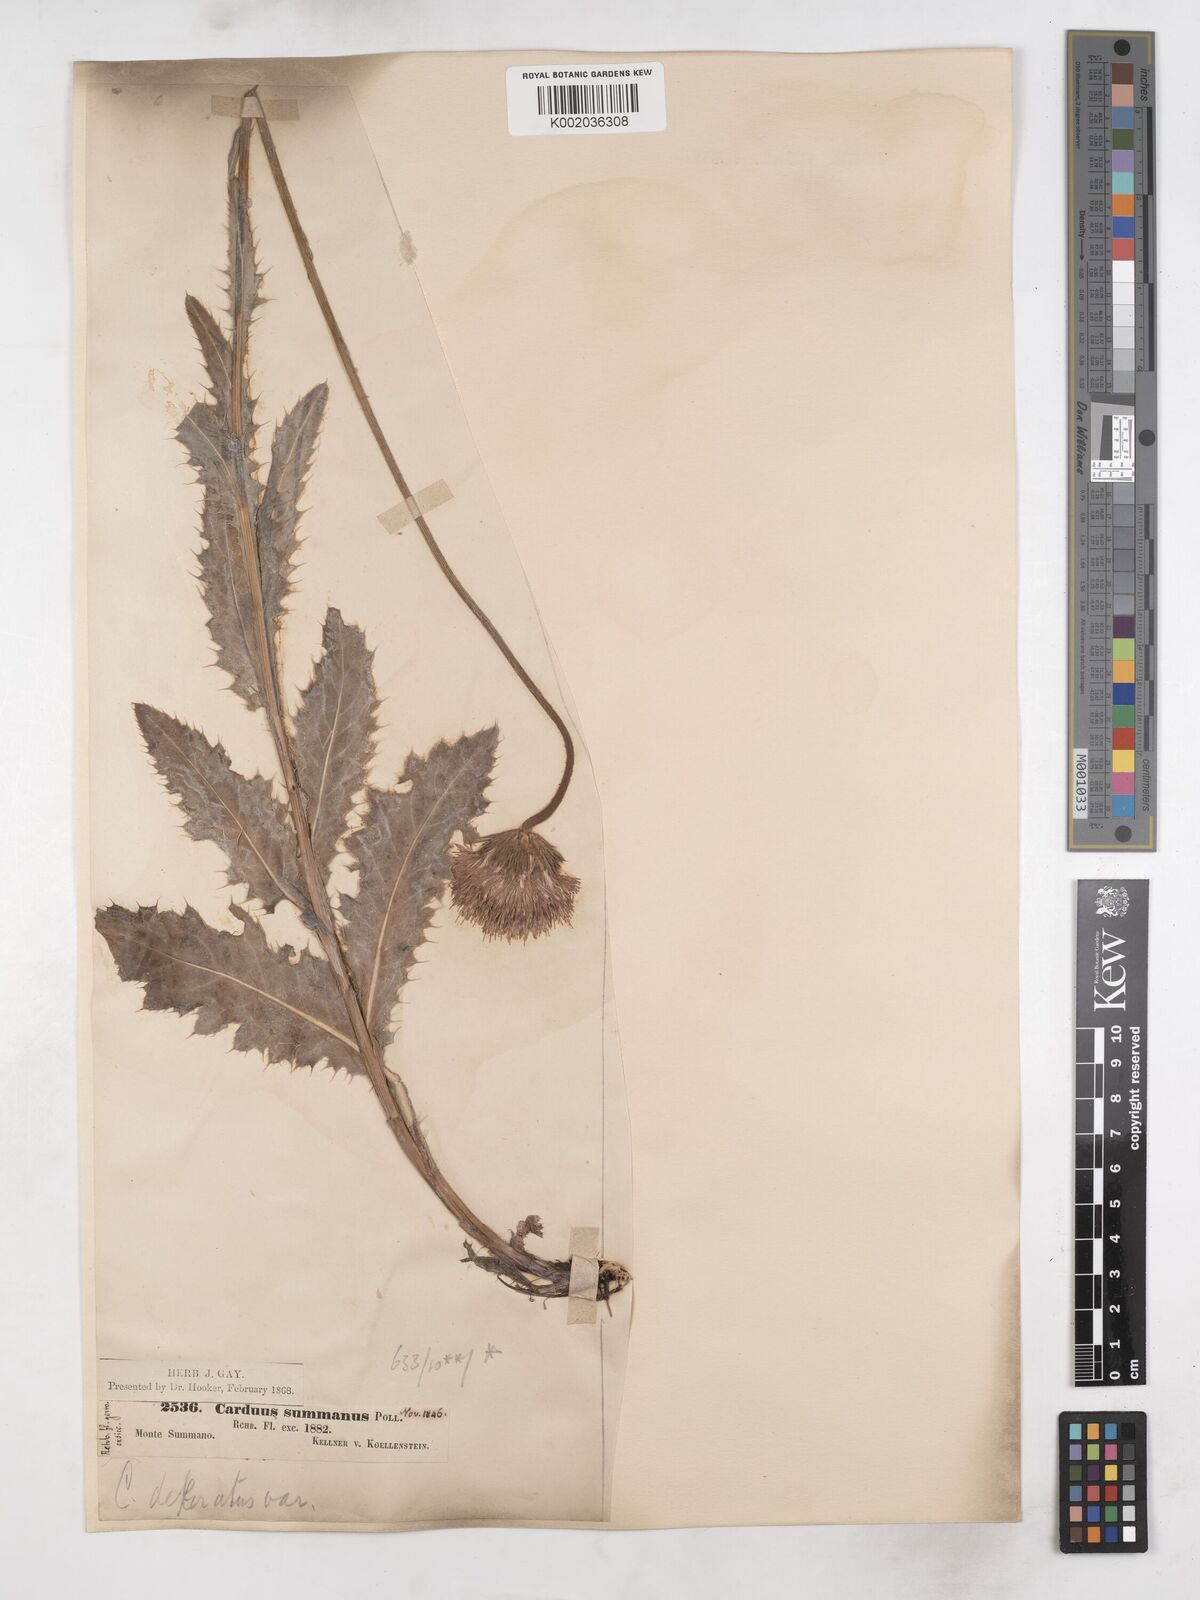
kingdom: Plantae
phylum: Tracheophyta
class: Magnoliopsida
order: Asterales
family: Asteraceae
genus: Carduus
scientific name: Carduus defloratus
